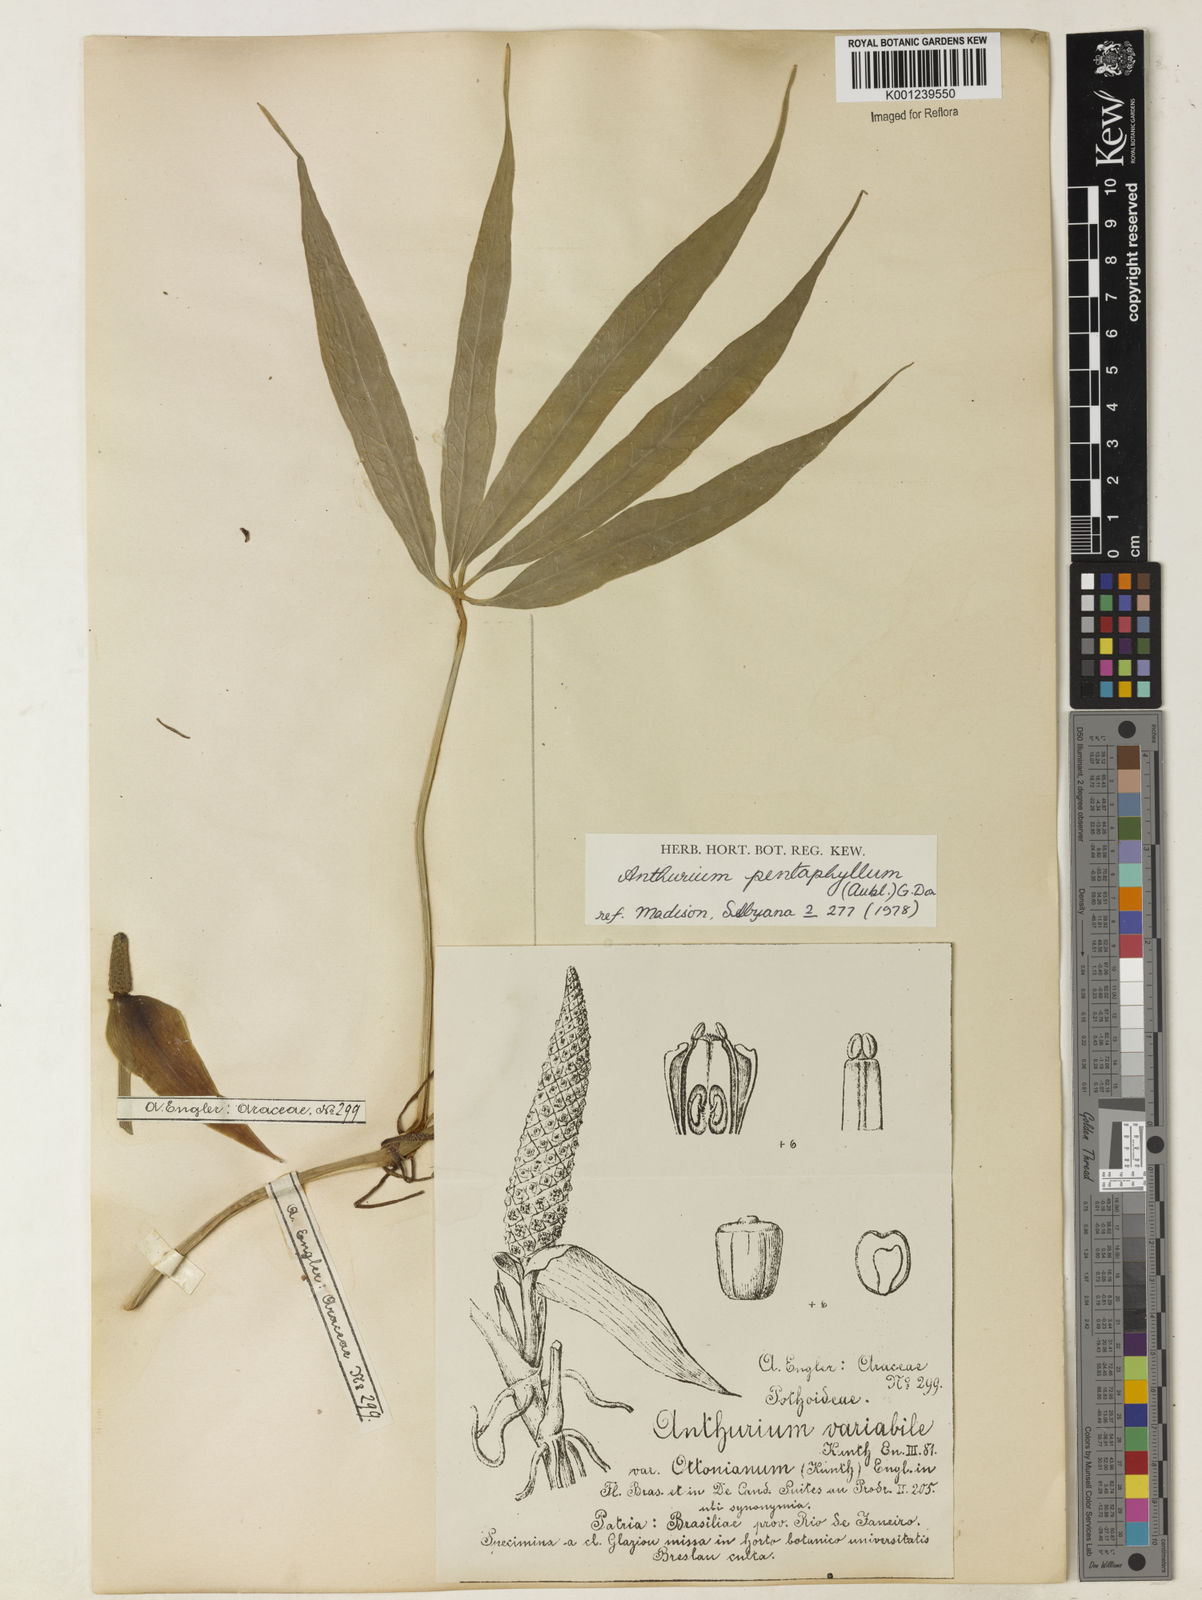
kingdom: Plantae
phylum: Tracheophyta
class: Liliopsida
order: Alismatales
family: Araceae
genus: Anthurium
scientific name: Anthurium pentaphyllum
